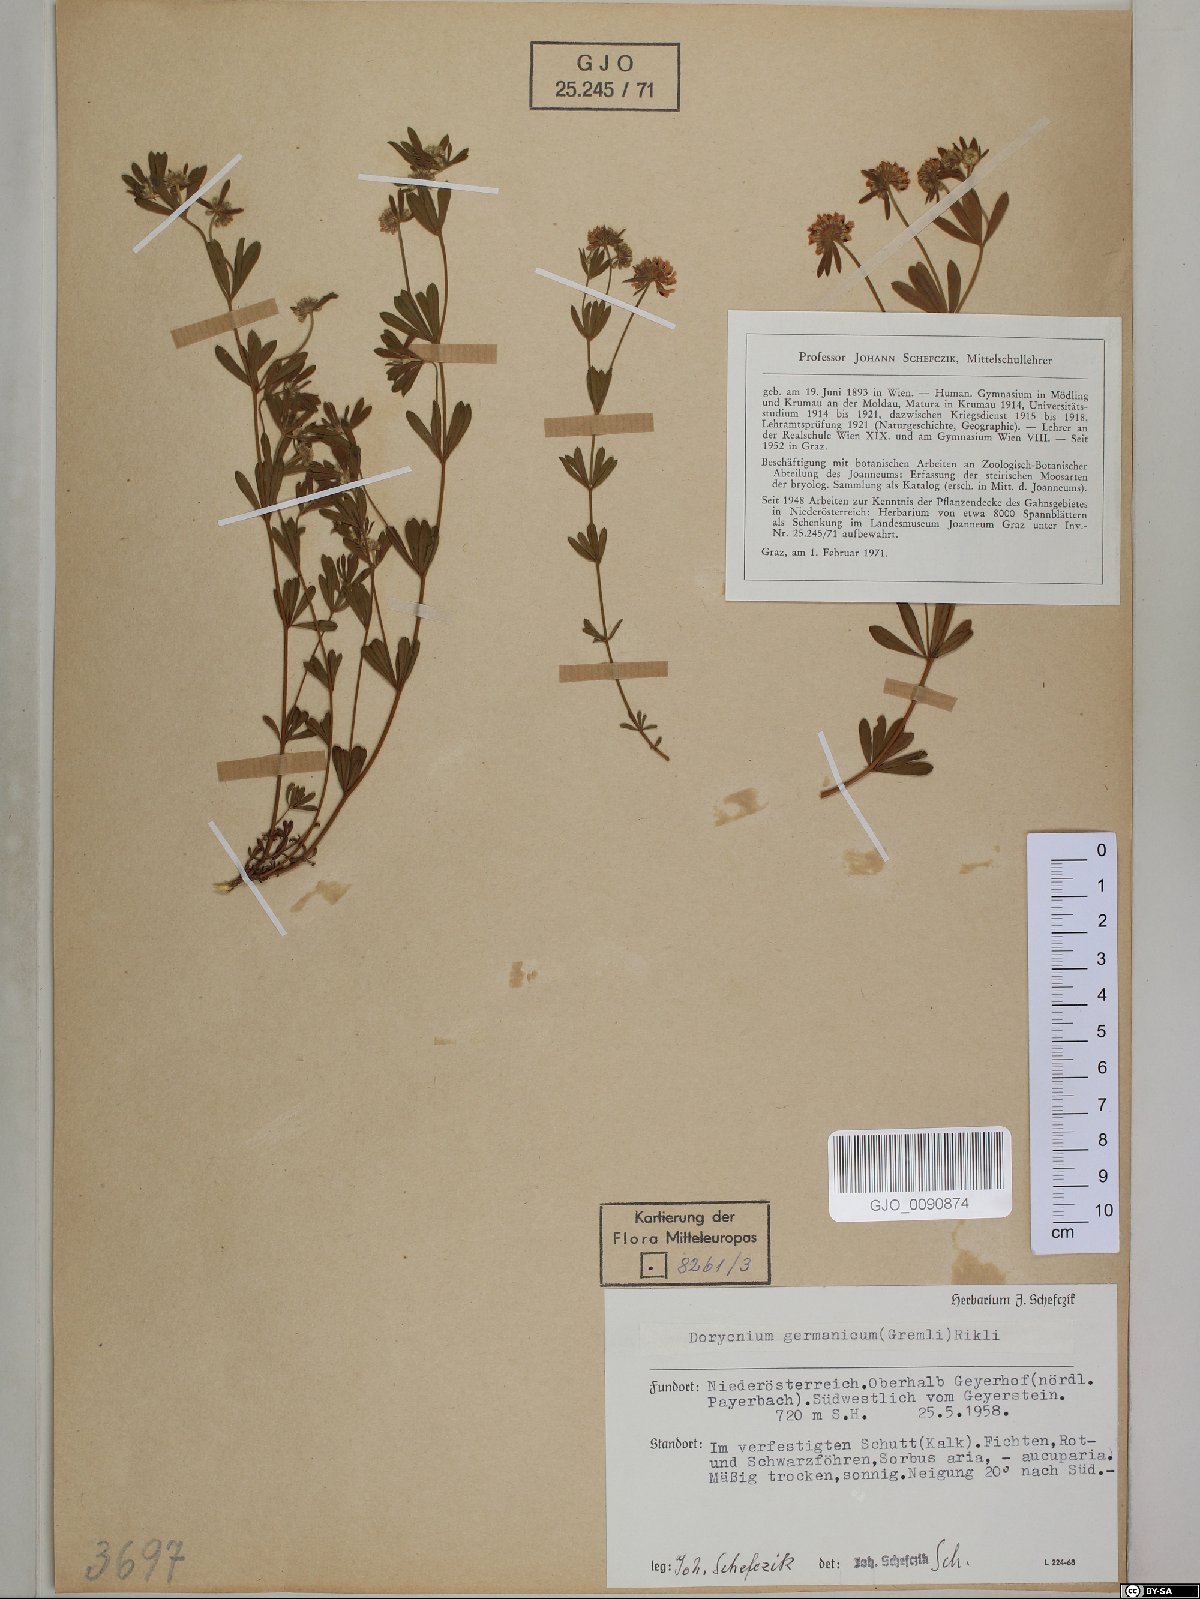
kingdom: Plantae
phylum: Tracheophyta
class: Magnoliopsida
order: Fabales
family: Fabaceae
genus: Lotus
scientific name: Lotus germanicus
